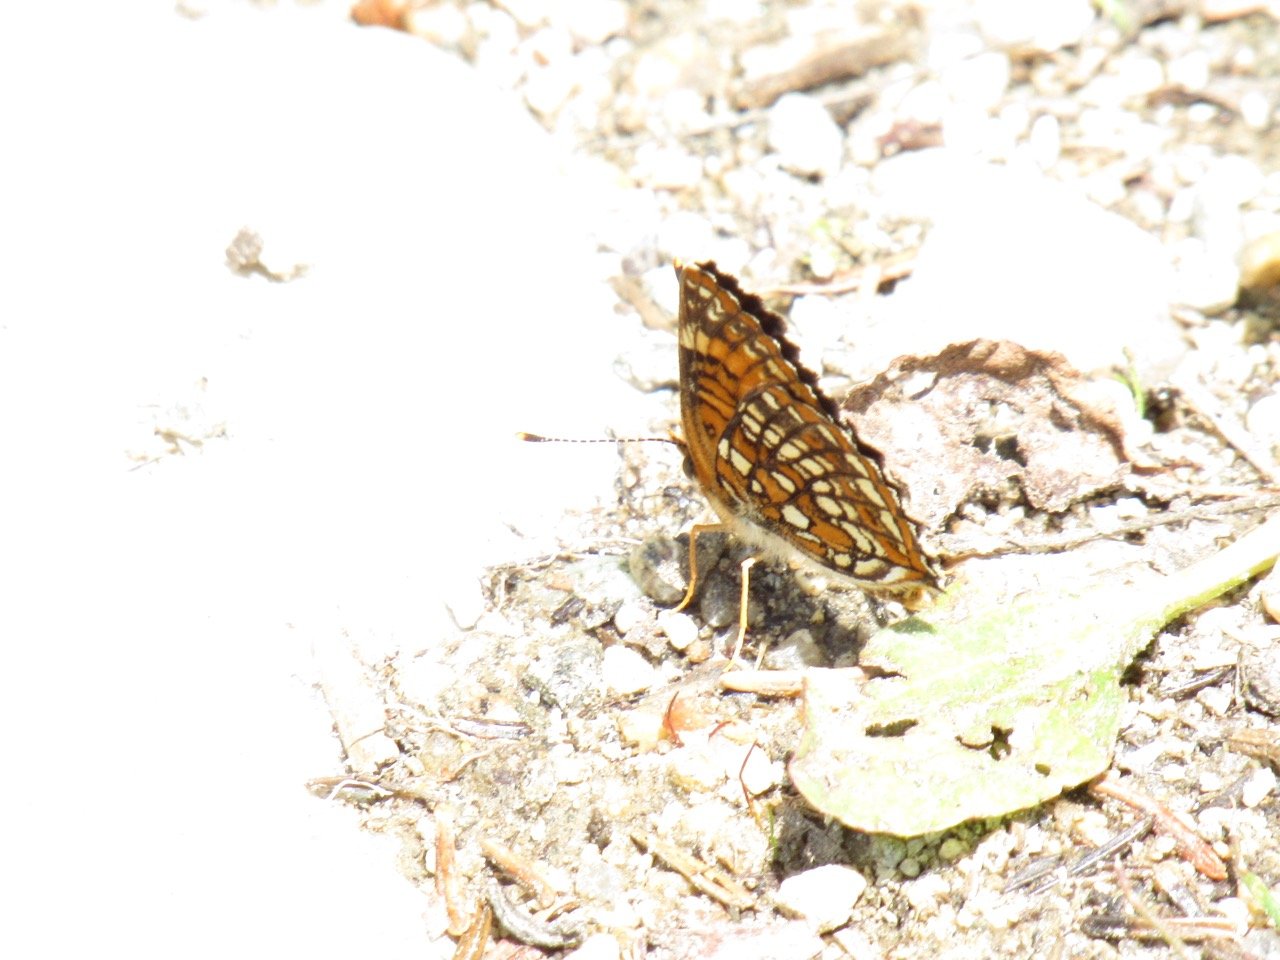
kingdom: Animalia
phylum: Arthropoda
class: Insecta
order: Lepidoptera
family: Nymphalidae
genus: Chlosyne
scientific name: Chlosyne harrisii
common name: Harris's Checkerspot
